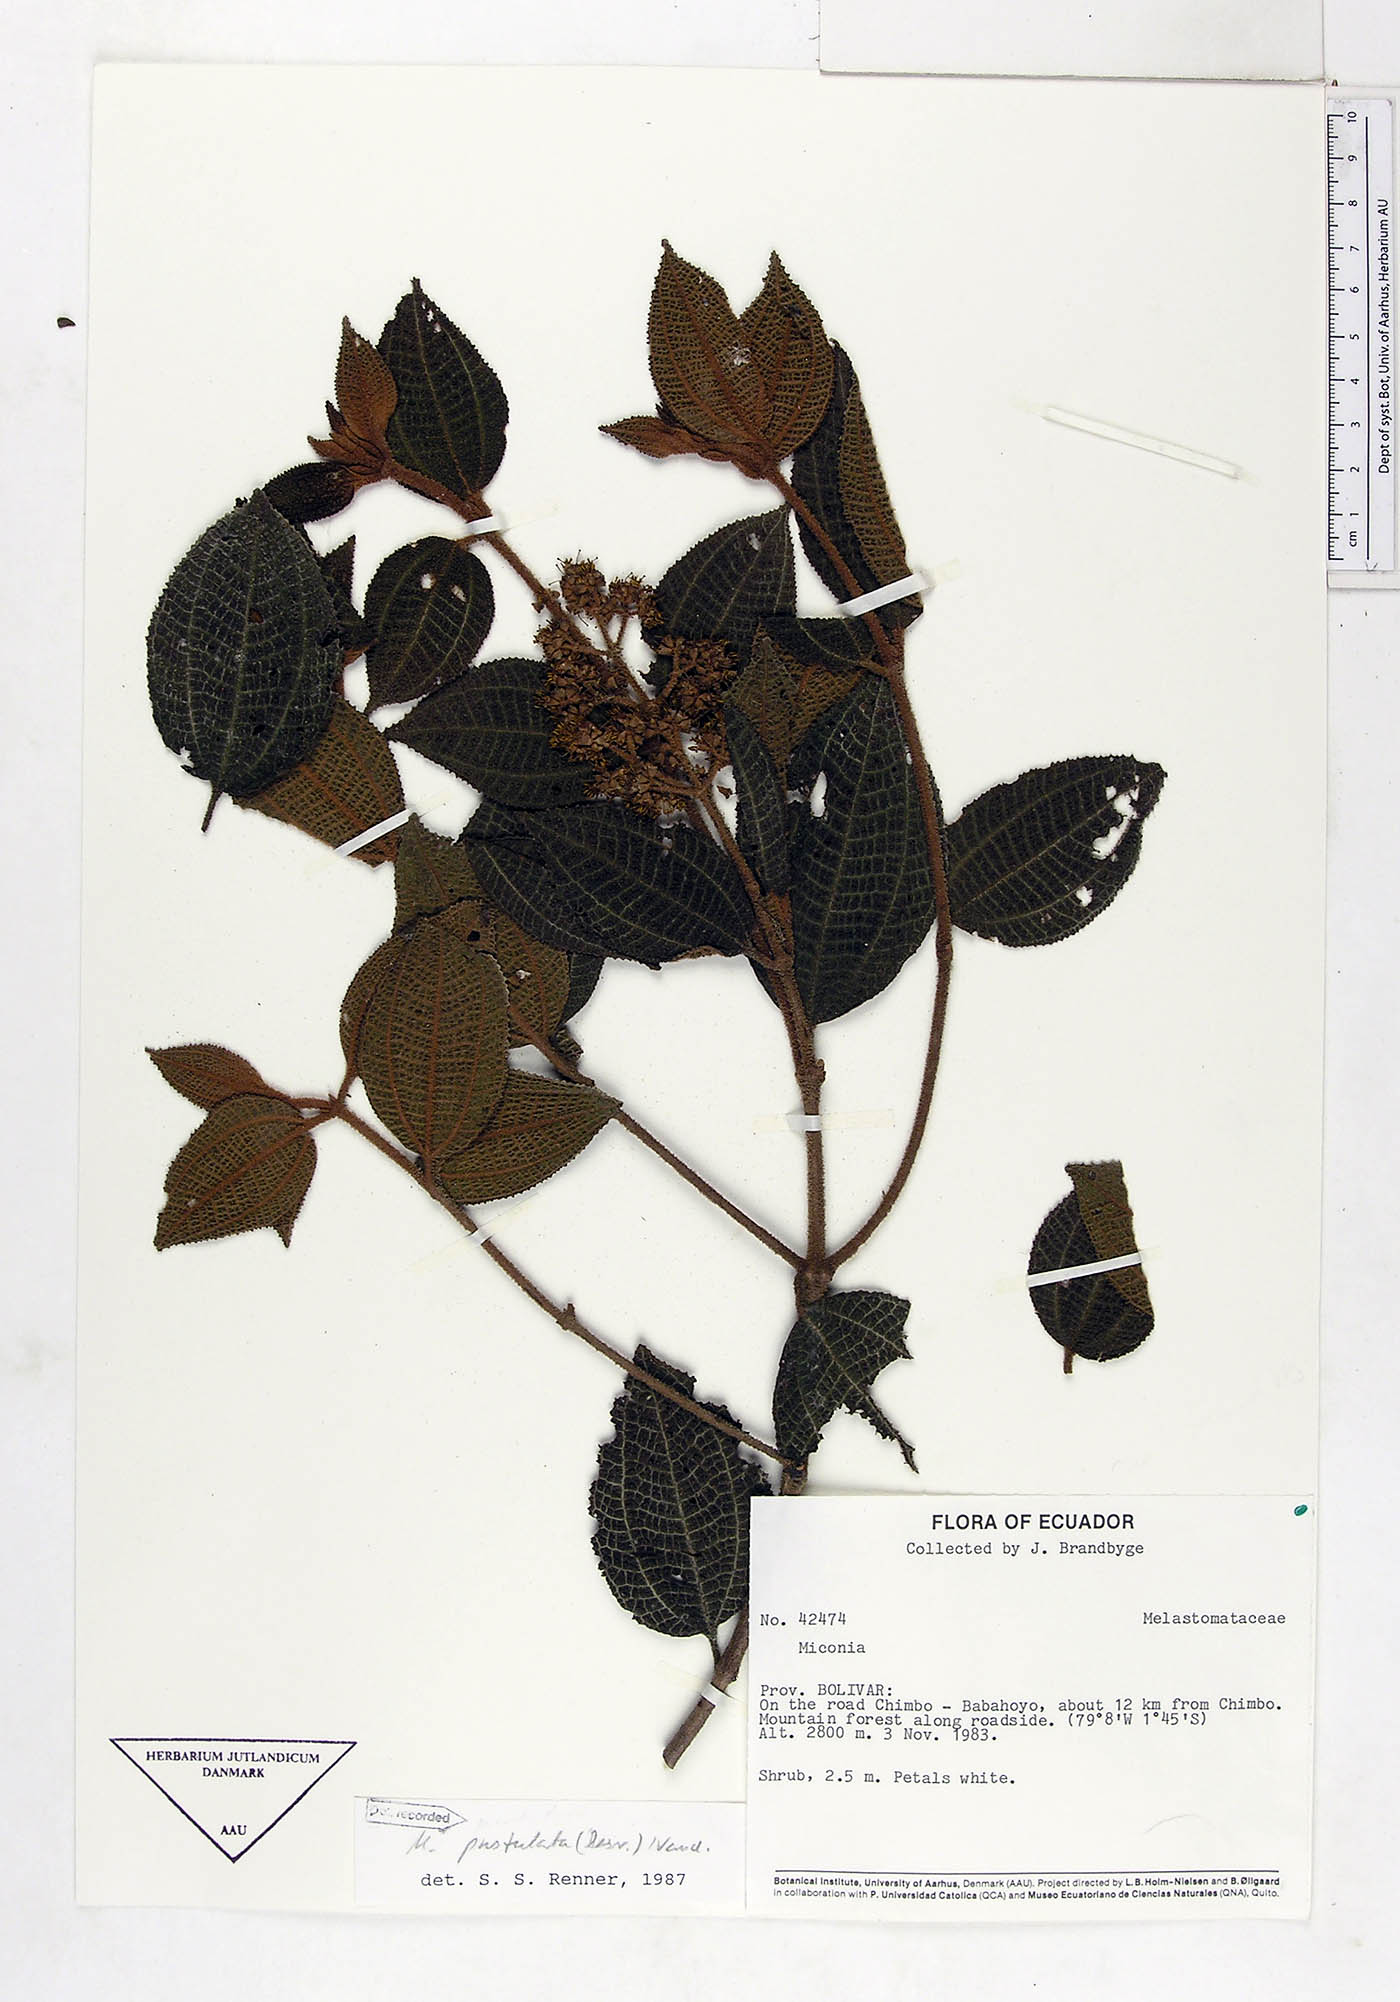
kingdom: Plantae
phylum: Tracheophyta
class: Magnoliopsida
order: Myrtales
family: Melastomataceae
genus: Miconia
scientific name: Miconia pustulata
